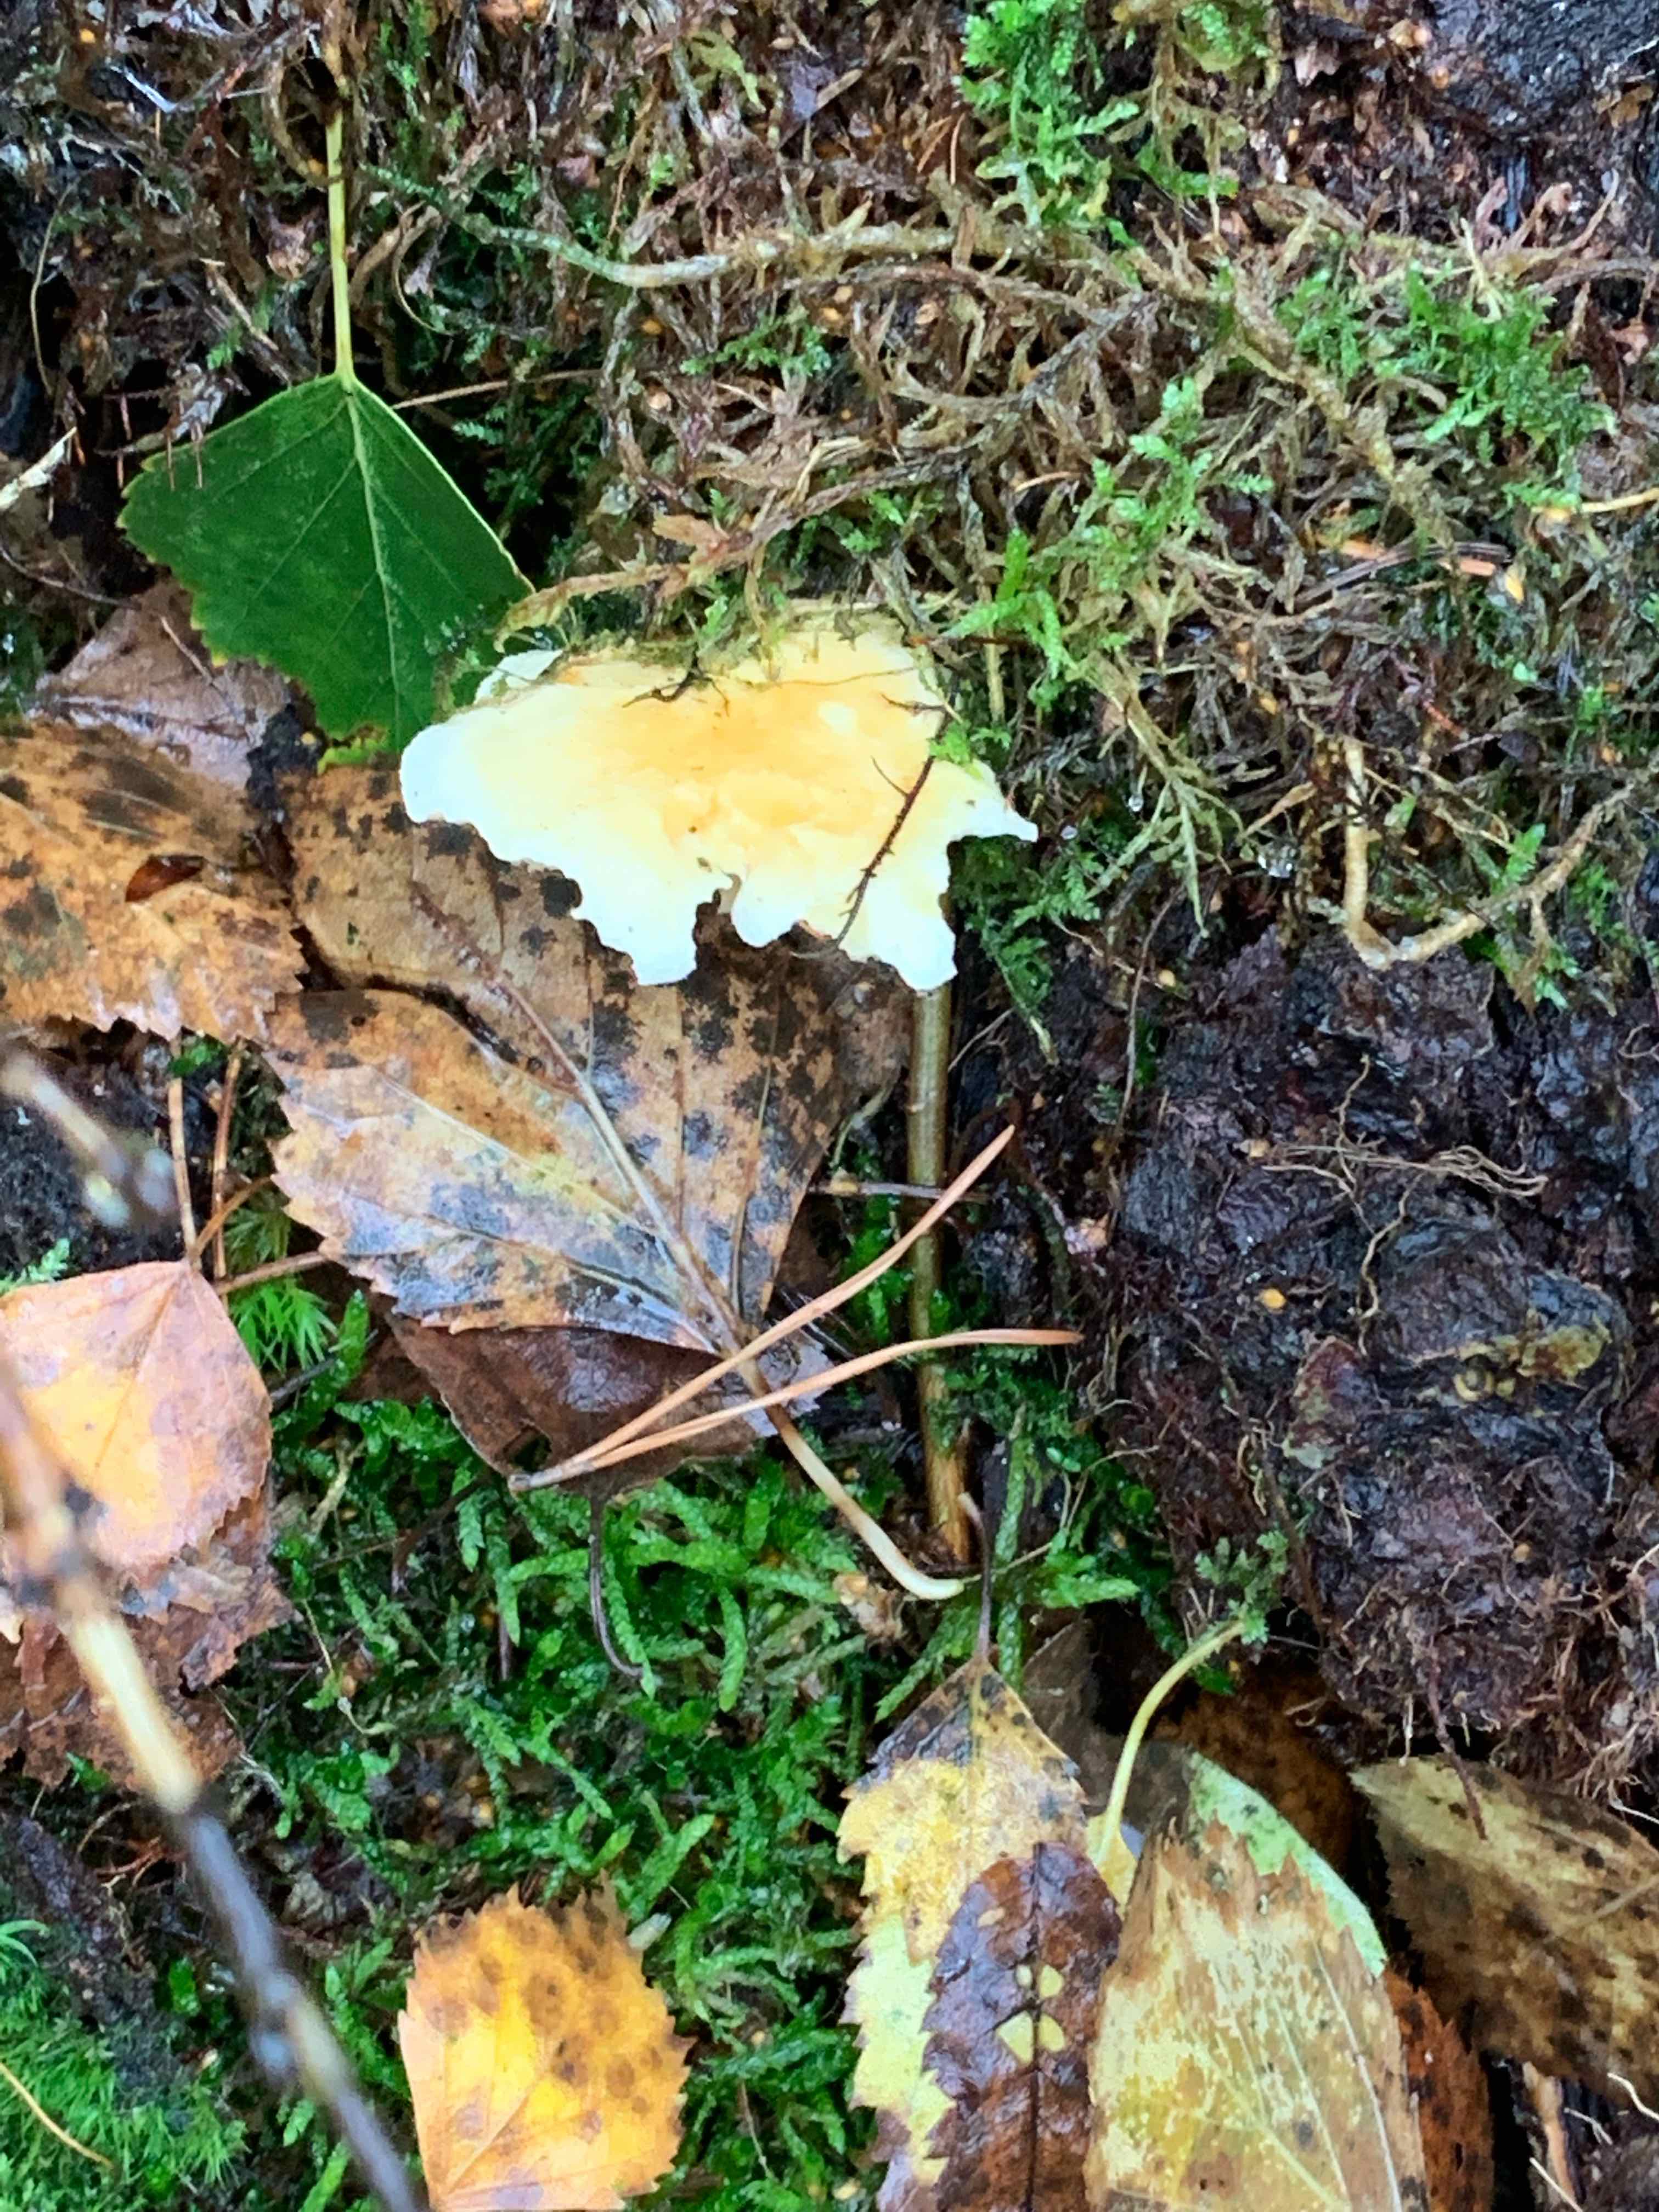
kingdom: Fungi
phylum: Basidiomycota
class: Agaricomycetes
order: Boletales
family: Hygrophoropsidaceae
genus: Hygrophoropsis
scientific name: Hygrophoropsis aurantiaca
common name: almindelig orangekantarel
